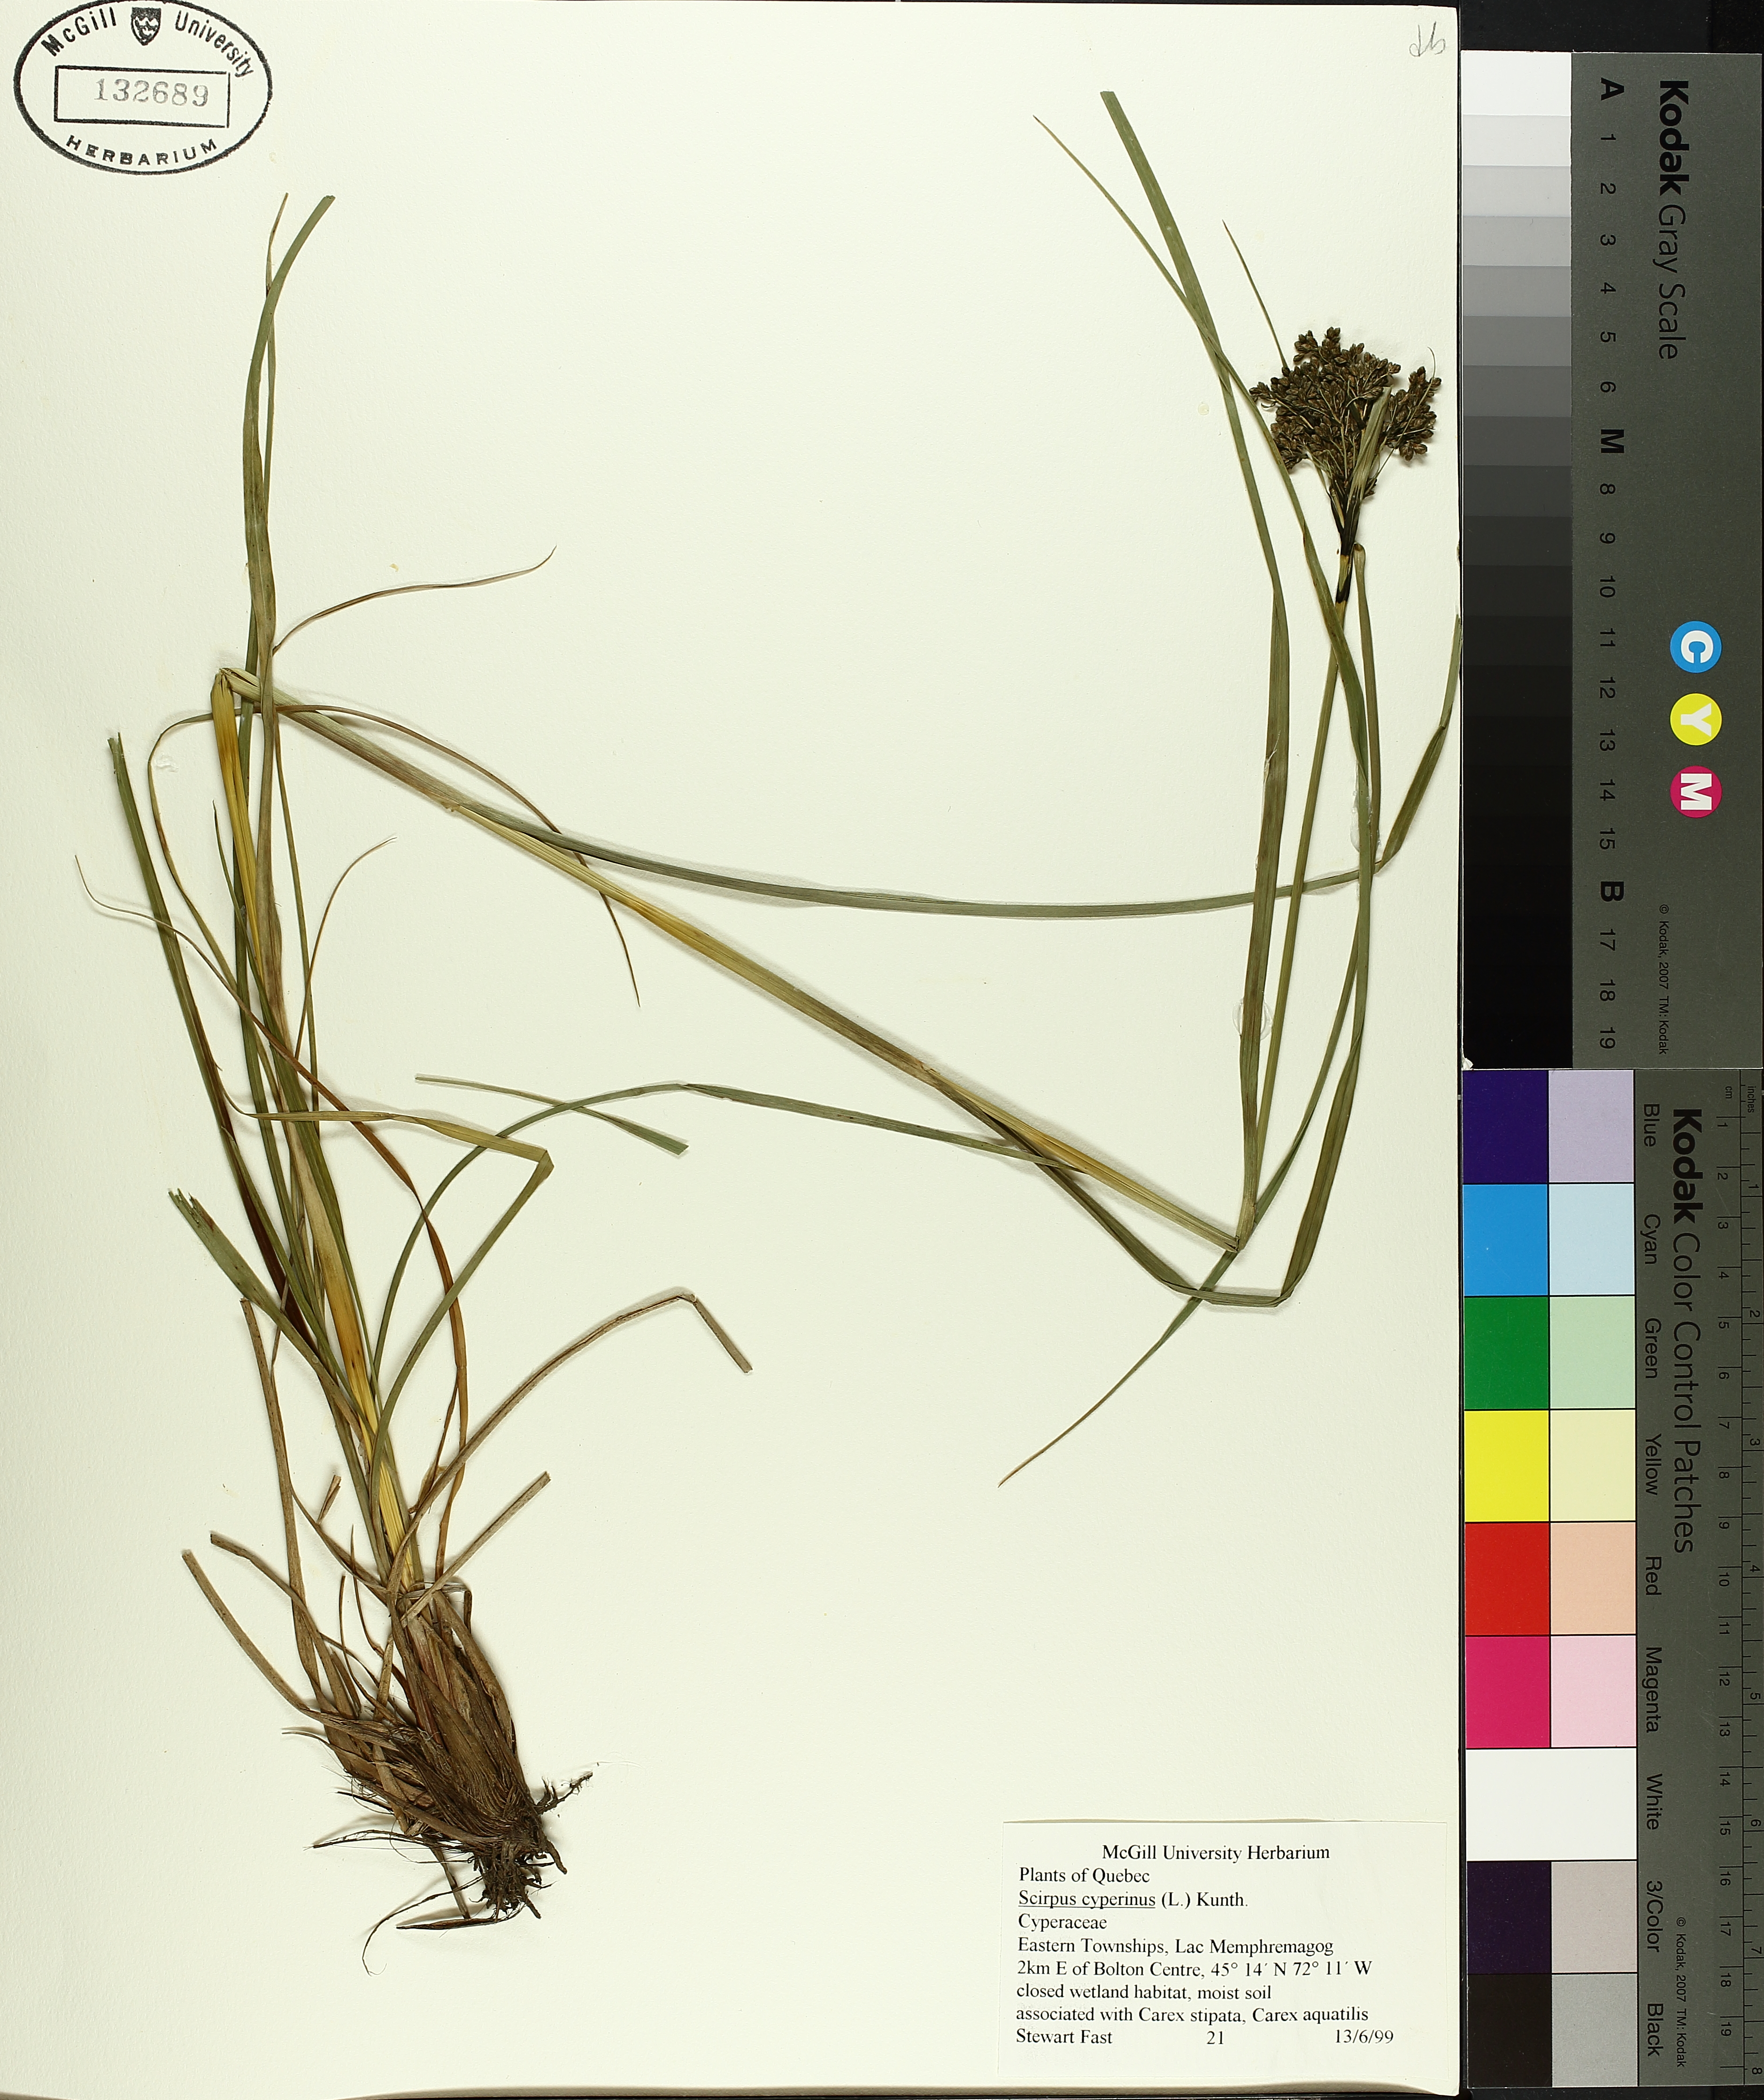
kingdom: Plantae
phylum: Tracheophyta
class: Liliopsida
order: Poales
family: Cyperaceae
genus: Scirpus
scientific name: Scirpus cyperinus
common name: Black-sheathed bulrush
